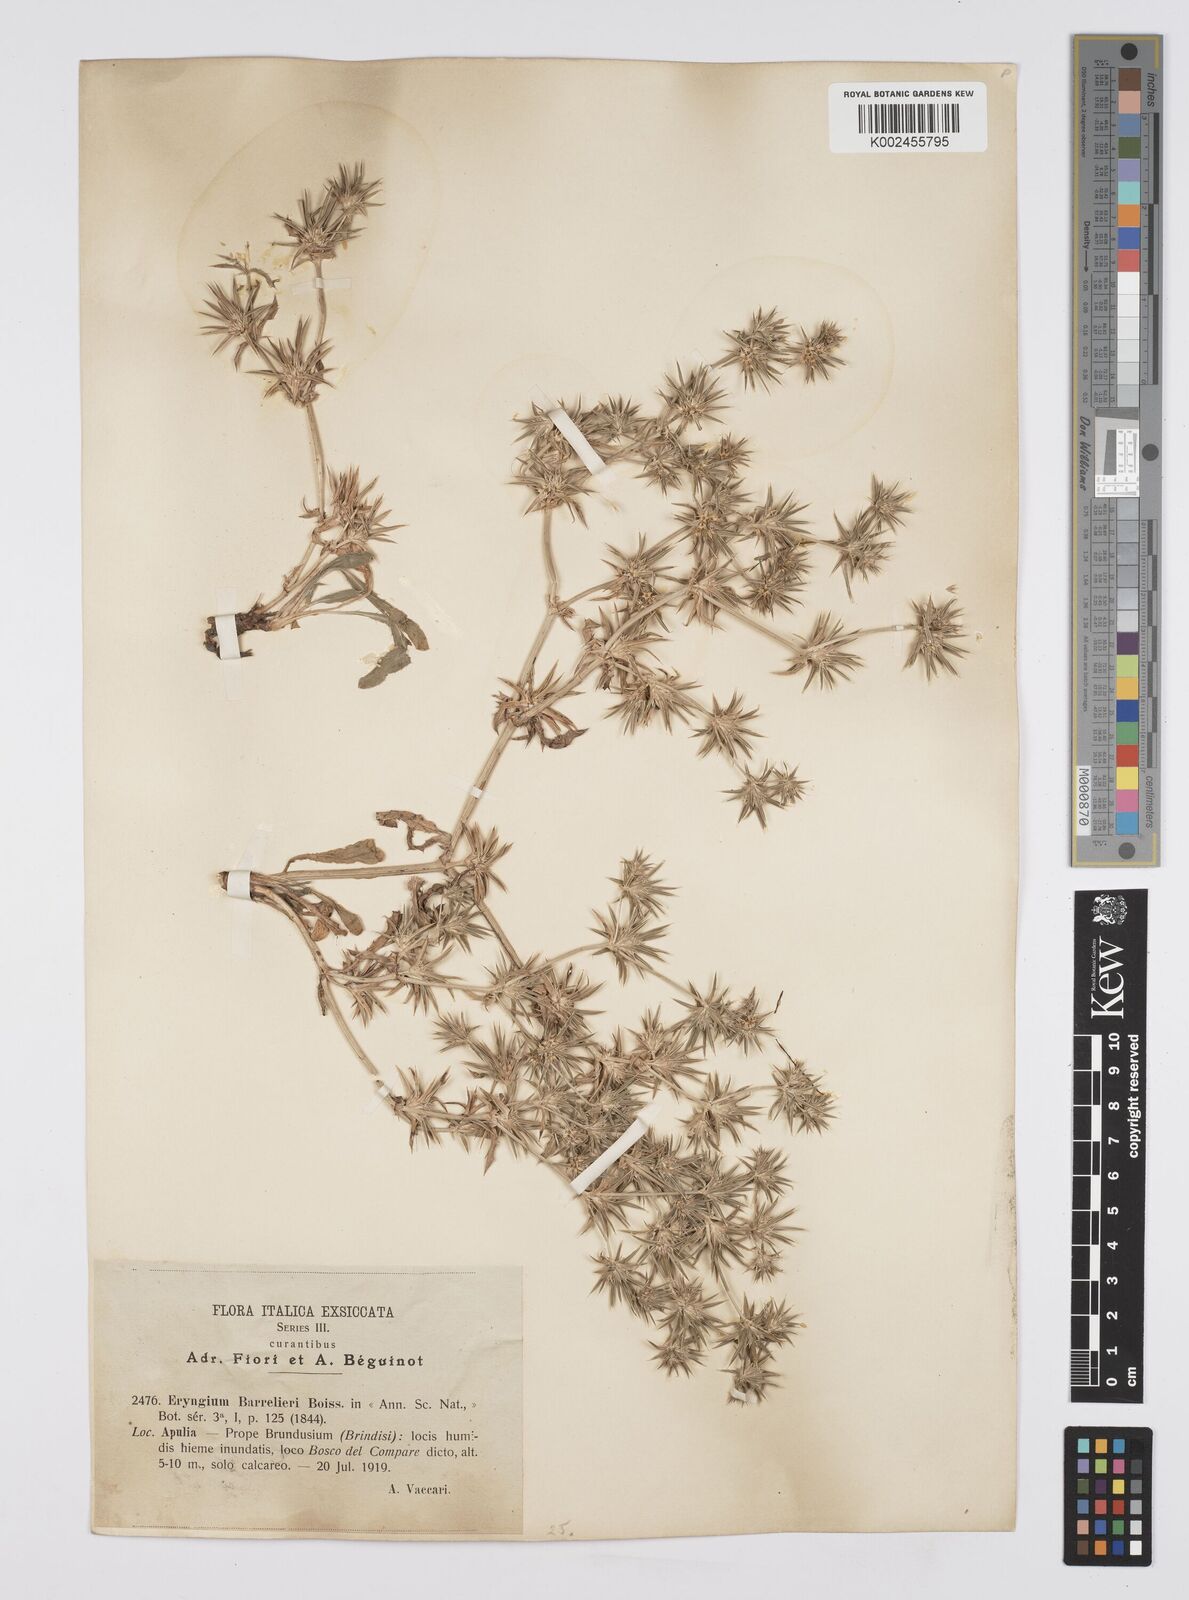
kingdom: Plantae
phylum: Tracheophyta
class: Magnoliopsida
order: Apiales
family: Apiaceae
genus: Eryngium
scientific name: Eryngium pusillum
